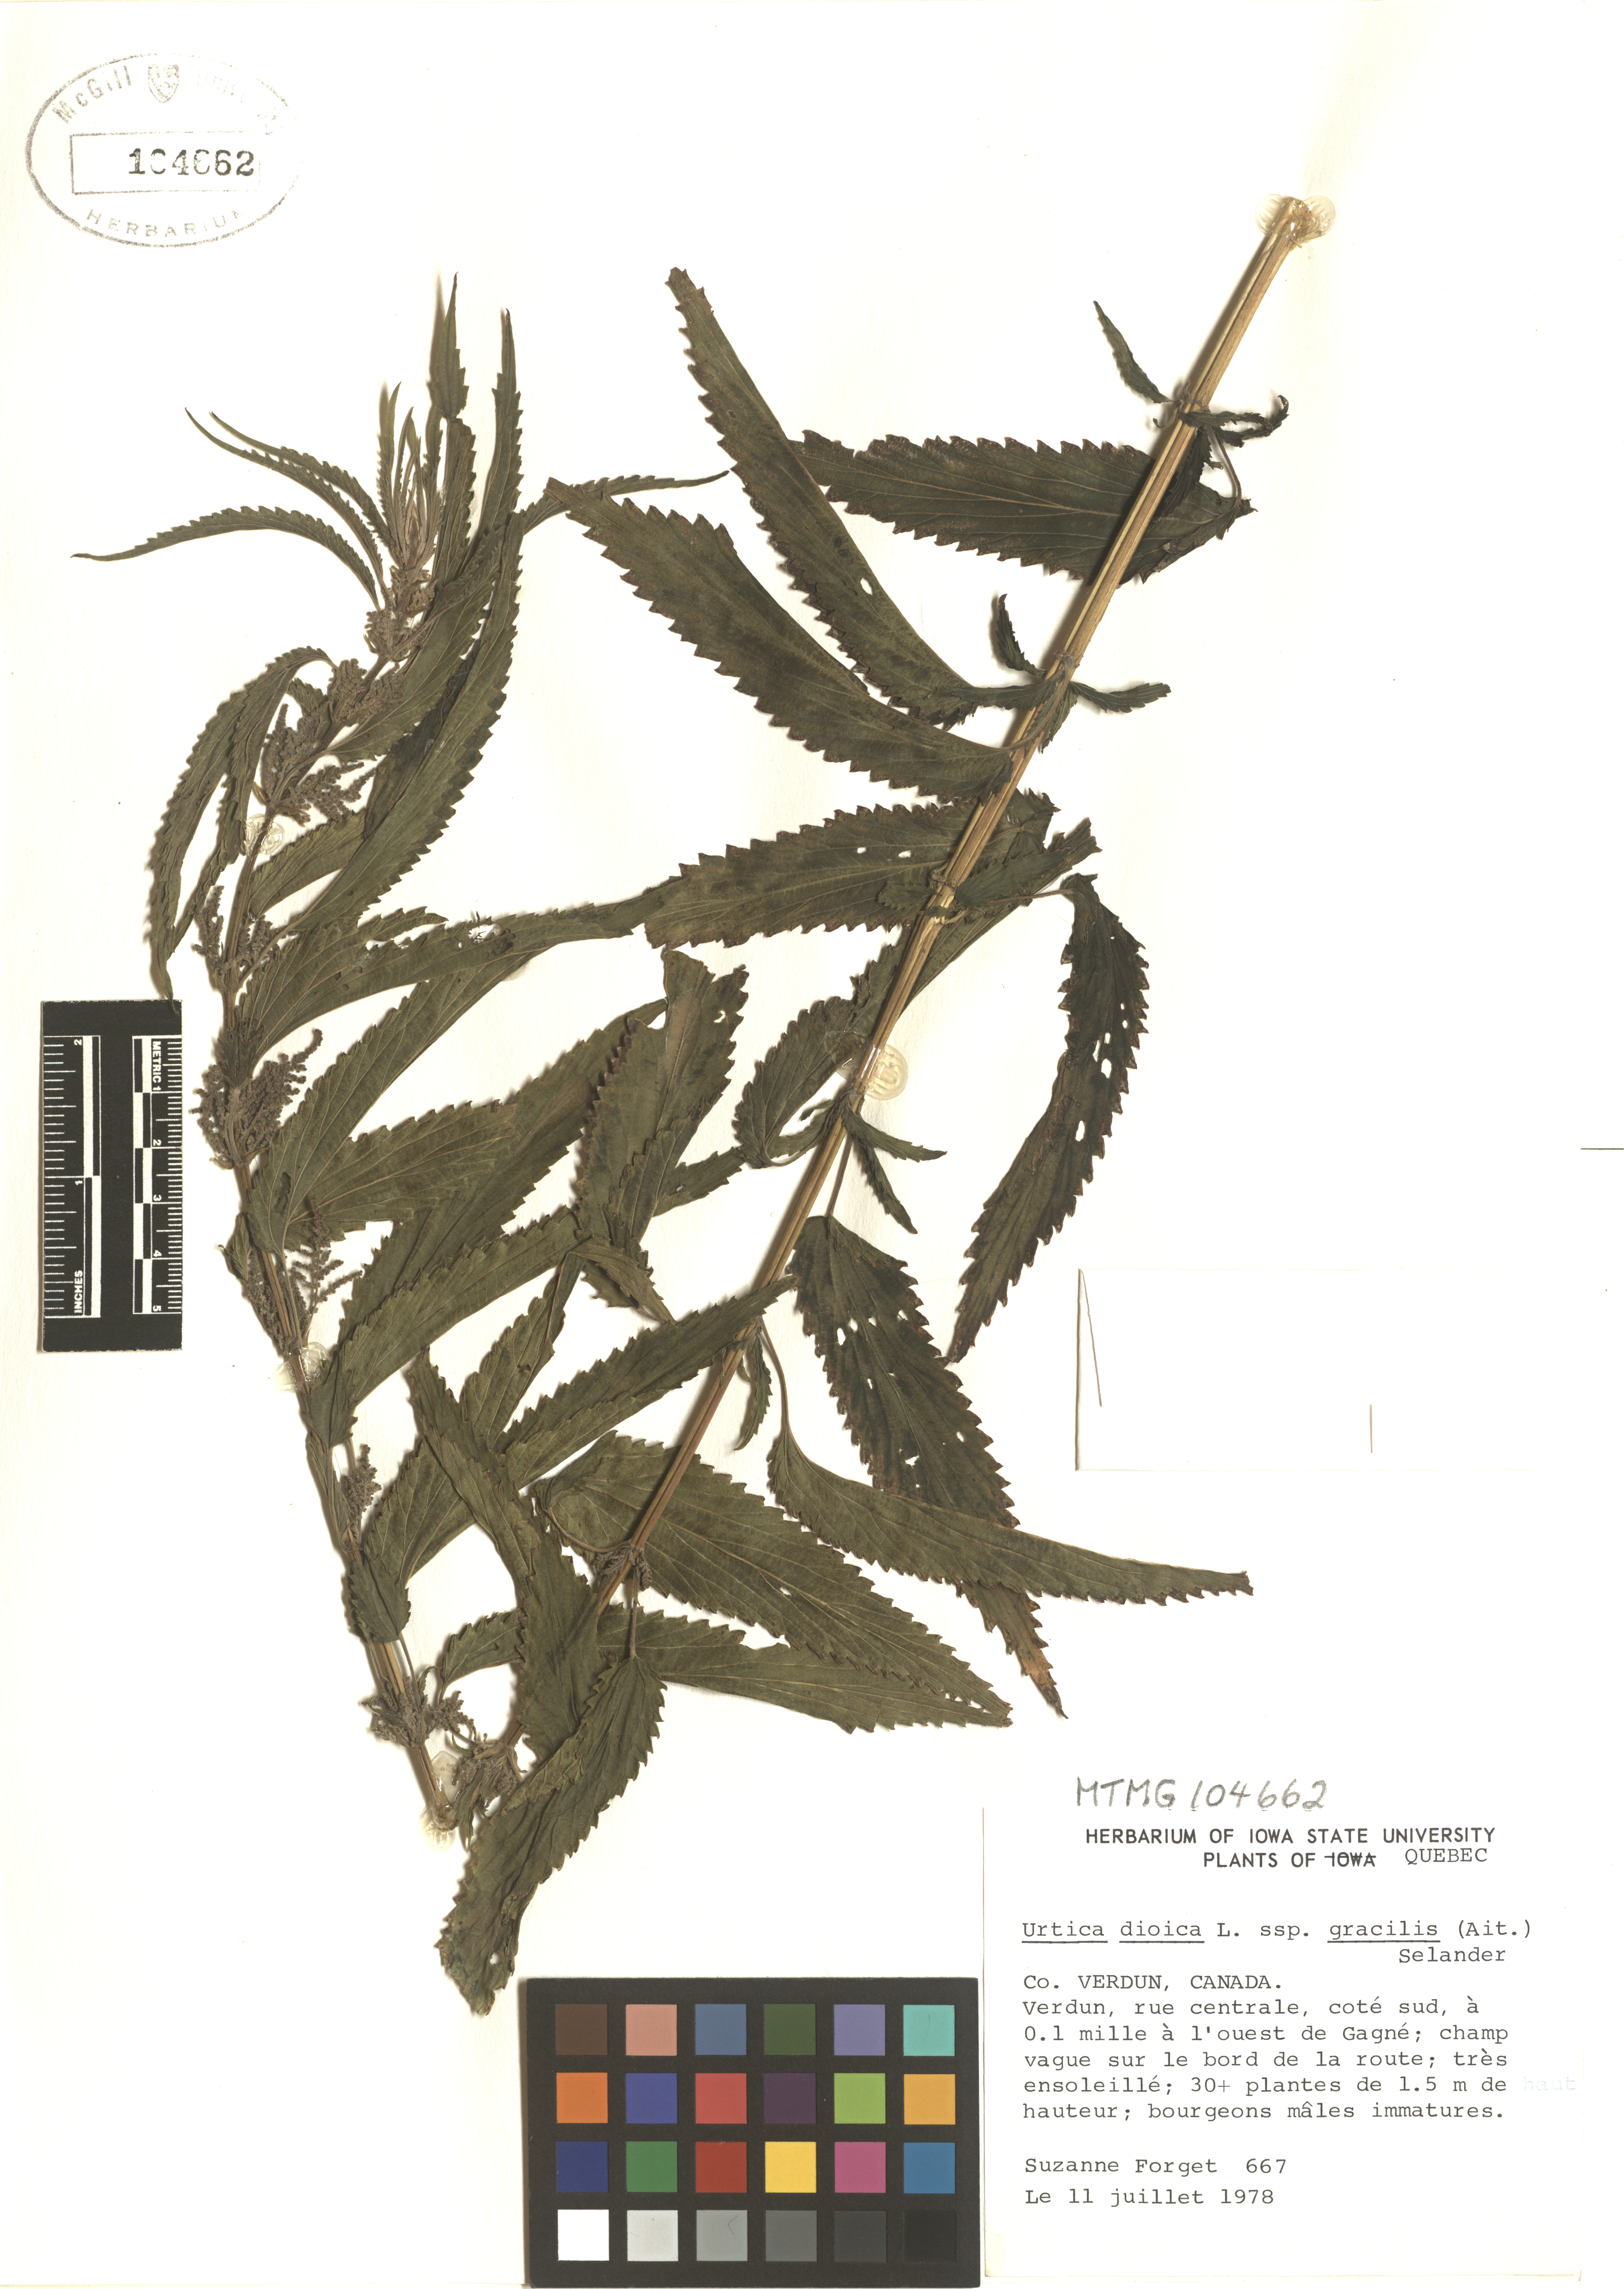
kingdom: Plantae
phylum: Tracheophyta
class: Magnoliopsida
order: Rosales
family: Urticaceae
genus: Urtica
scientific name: Urtica gracilis
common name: Slender stinging nettle
